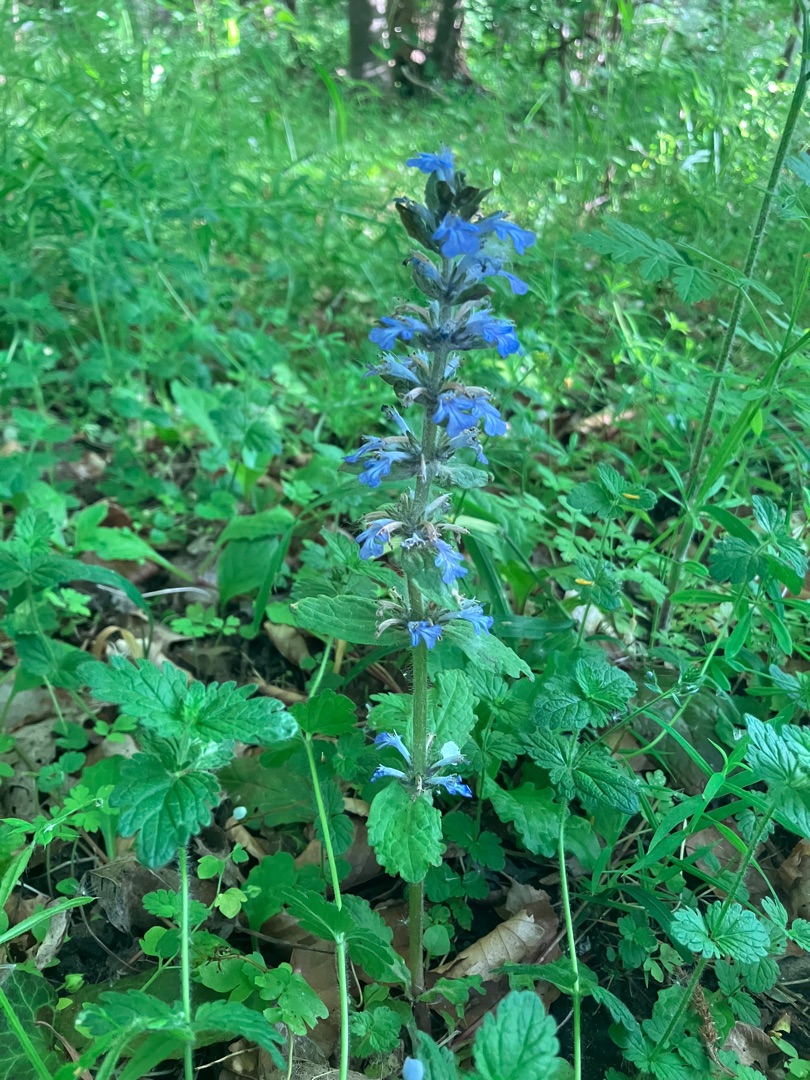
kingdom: Plantae
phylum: Tracheophyta
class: Magnoliopsida
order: Lamiales
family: Lamiaceae
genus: Ajuga
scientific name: Ajuga reptans
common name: Krybende læbeløs
